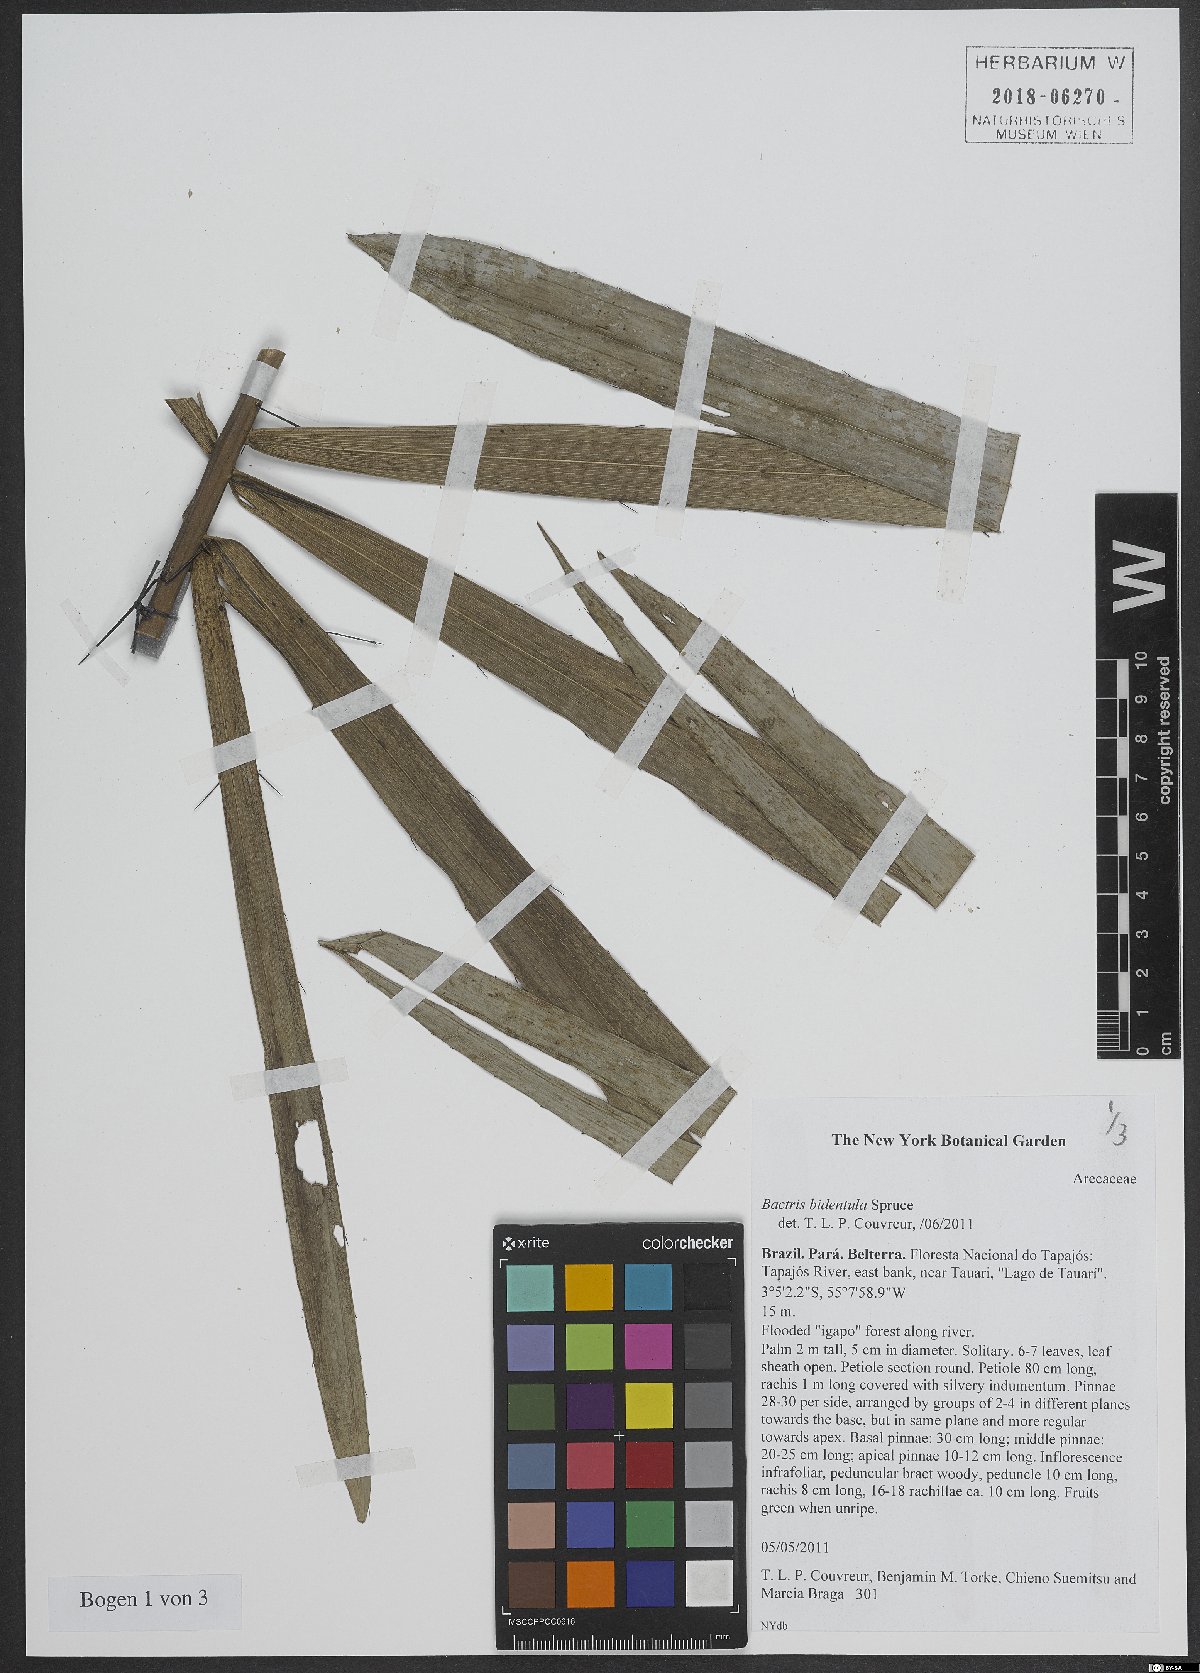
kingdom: Plantae
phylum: Tracheophyta
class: Liliopsida
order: Arecales
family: Arecaceae
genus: Bactris
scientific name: Bactris bidentula
